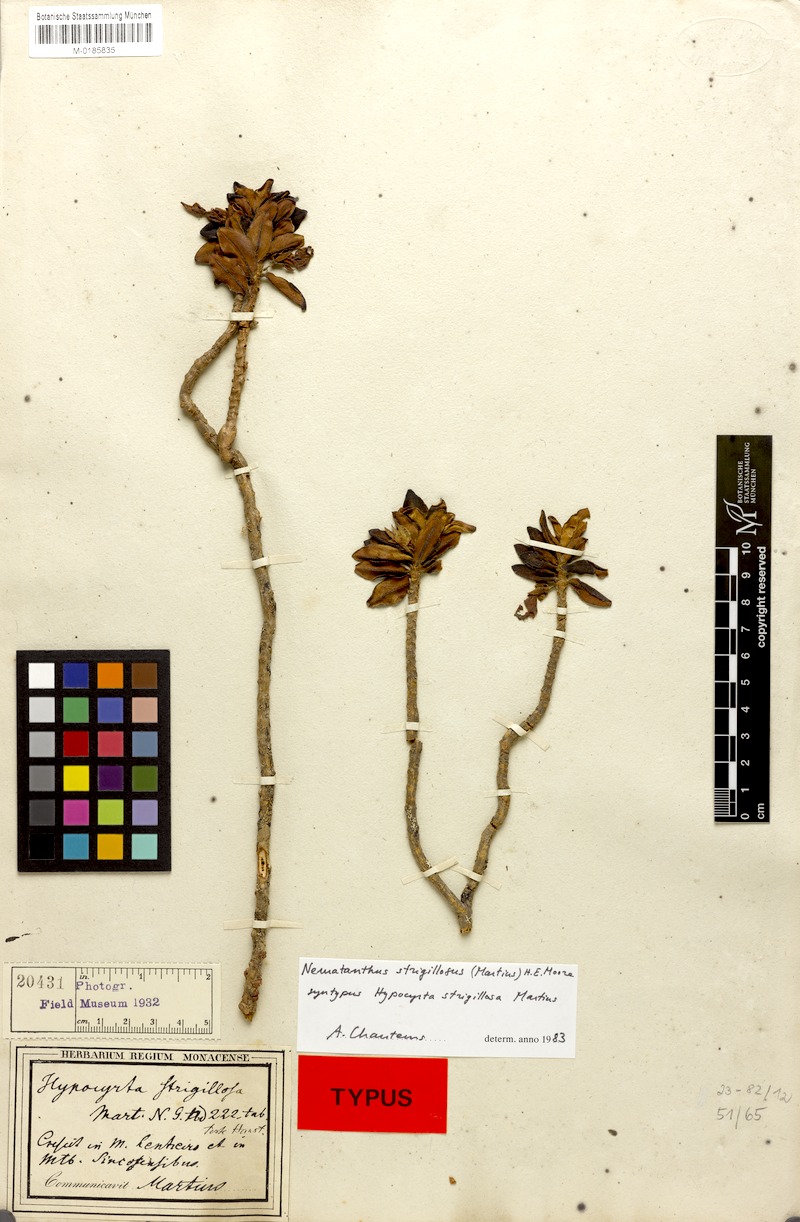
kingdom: Plantae
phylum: Tracheophyta
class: Magnoliopsida
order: Lamiales
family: Gesneriaceae
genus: Nematanthus
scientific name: Nematanthus strigillosus
